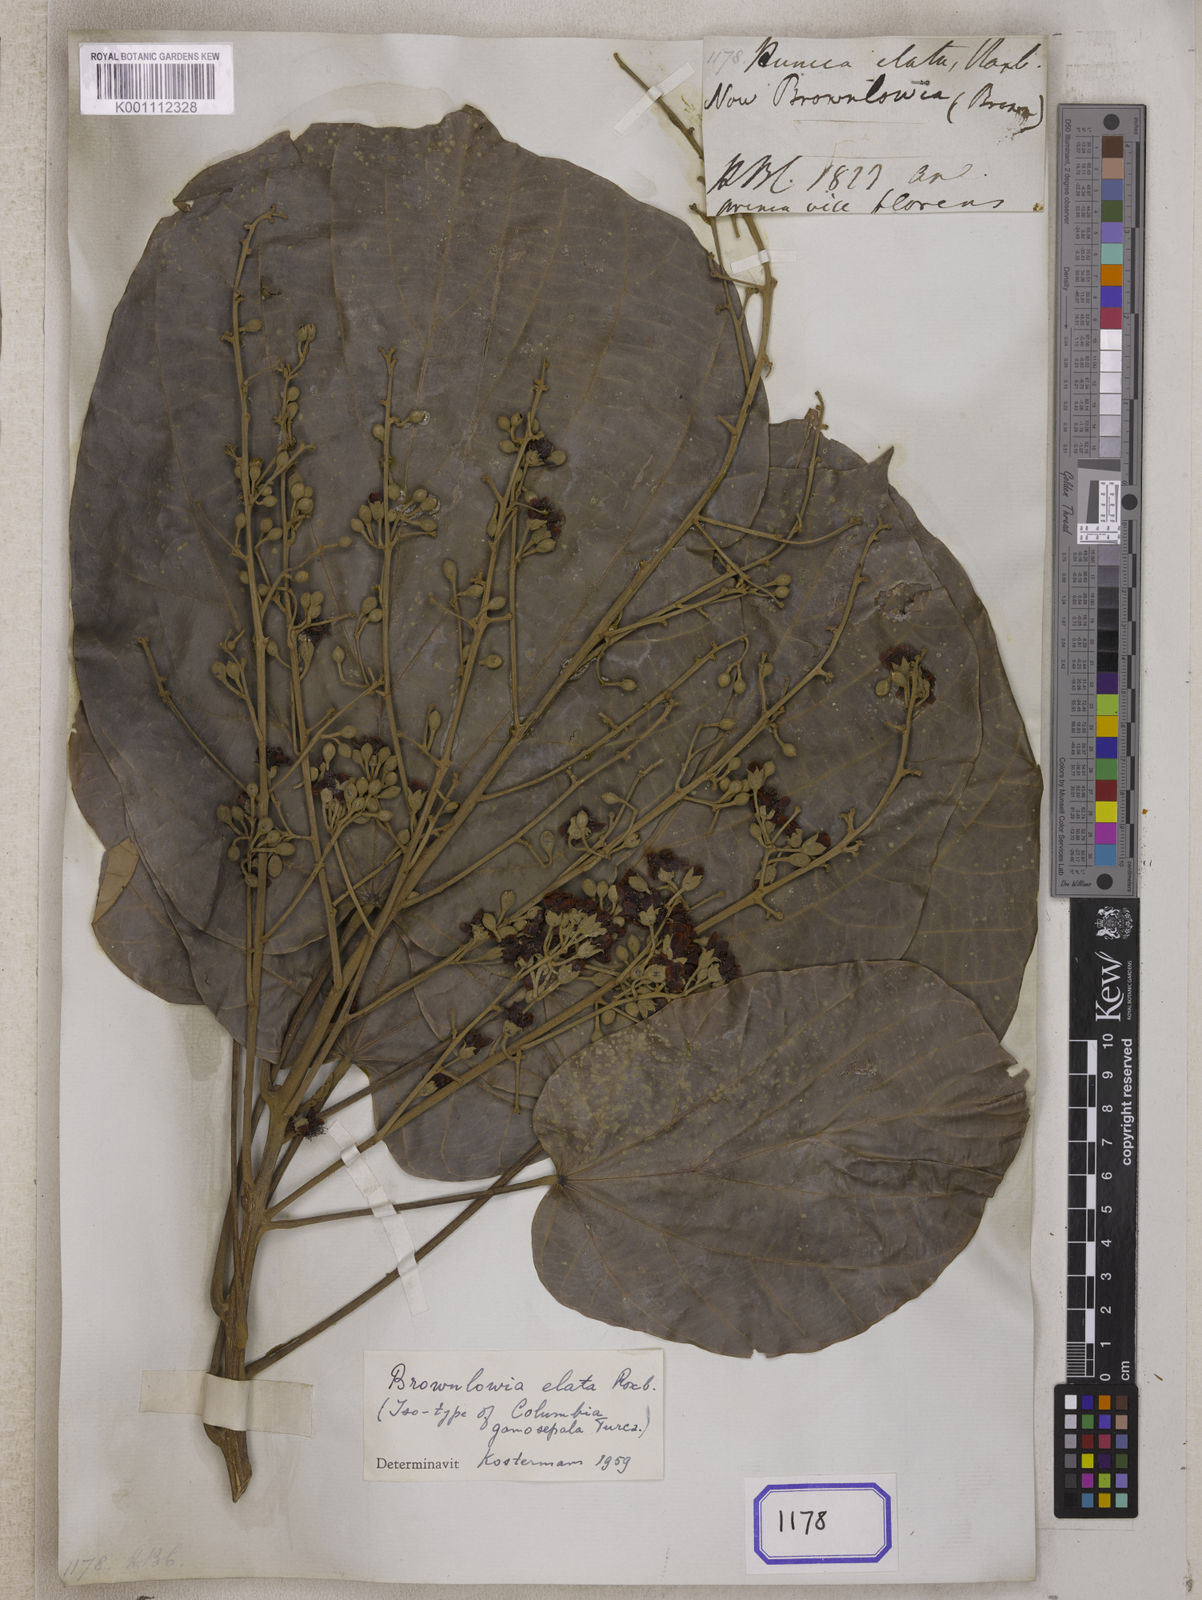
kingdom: Plantae
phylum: Tracheophyta
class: Magnoliopsida
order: Malvales
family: Malvaceae
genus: Brownlowia
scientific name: Brownlowia elata
